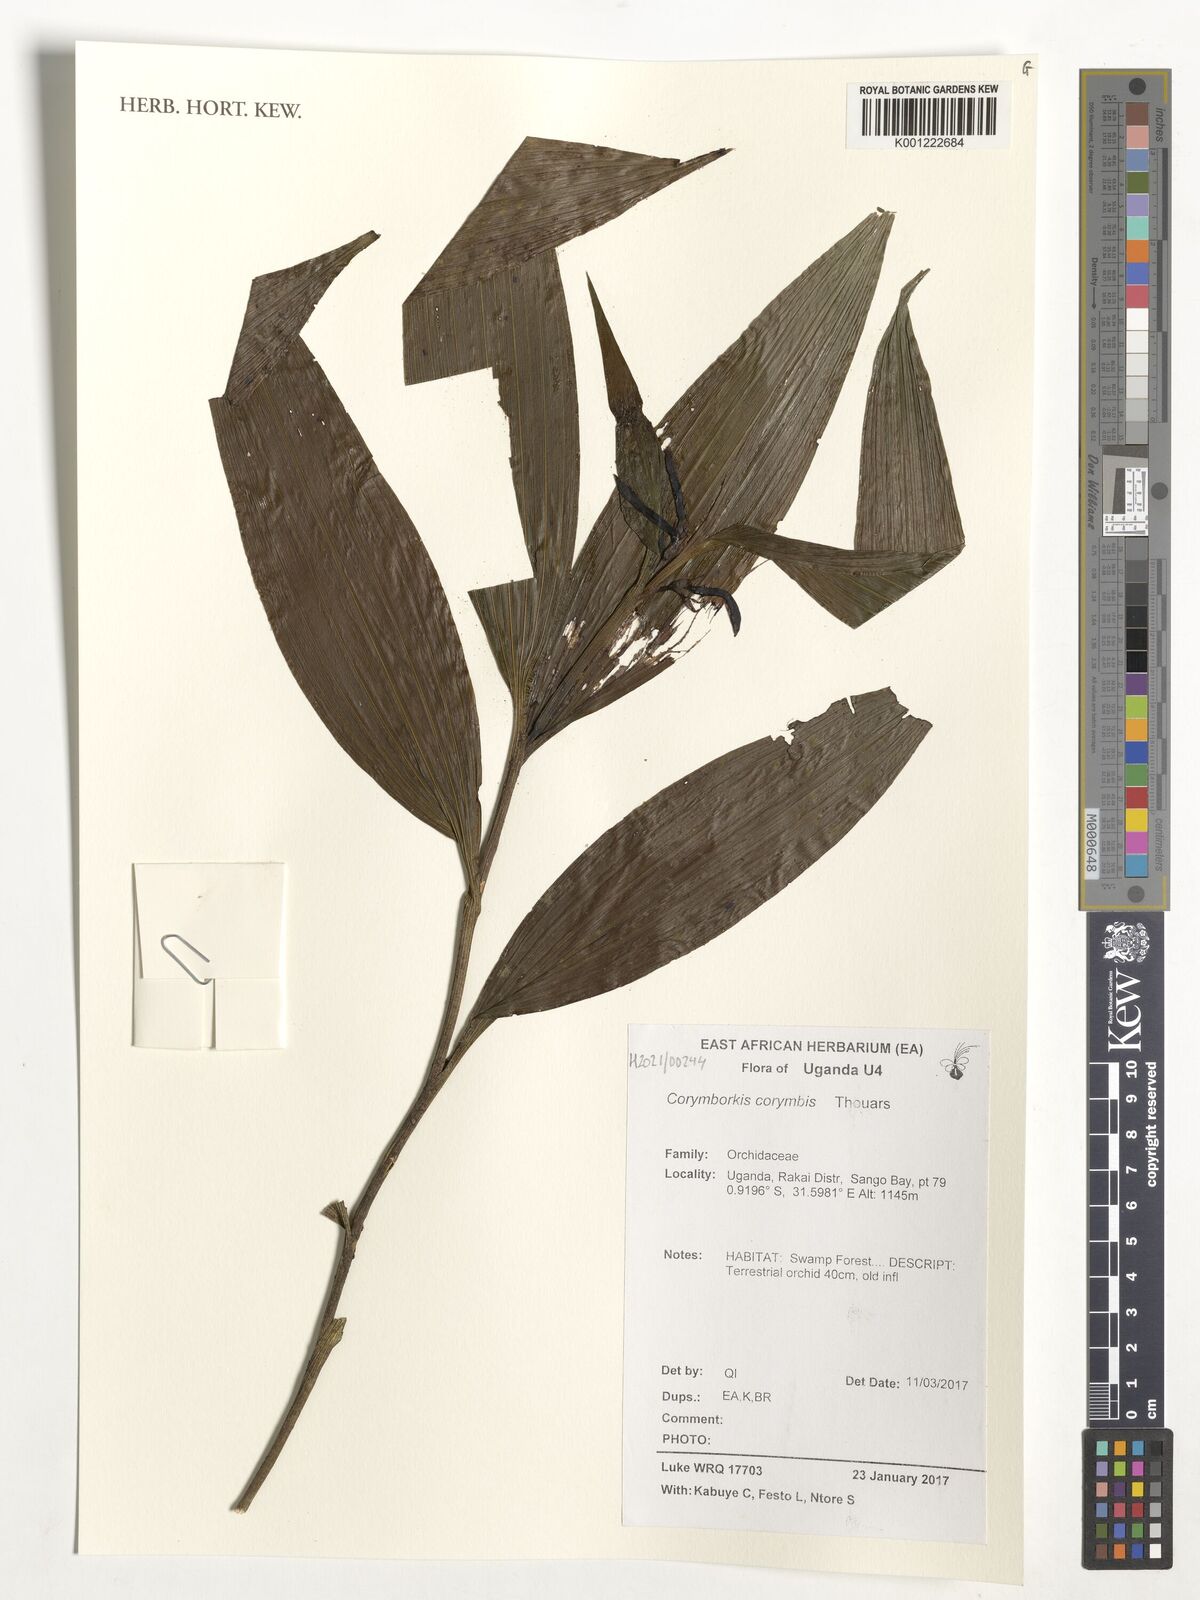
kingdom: Plantae
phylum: Tracheophyta
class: Liliopsida
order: Asparagales
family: Orchidaceae
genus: Corymborkis
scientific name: Corymborkis corymbis
